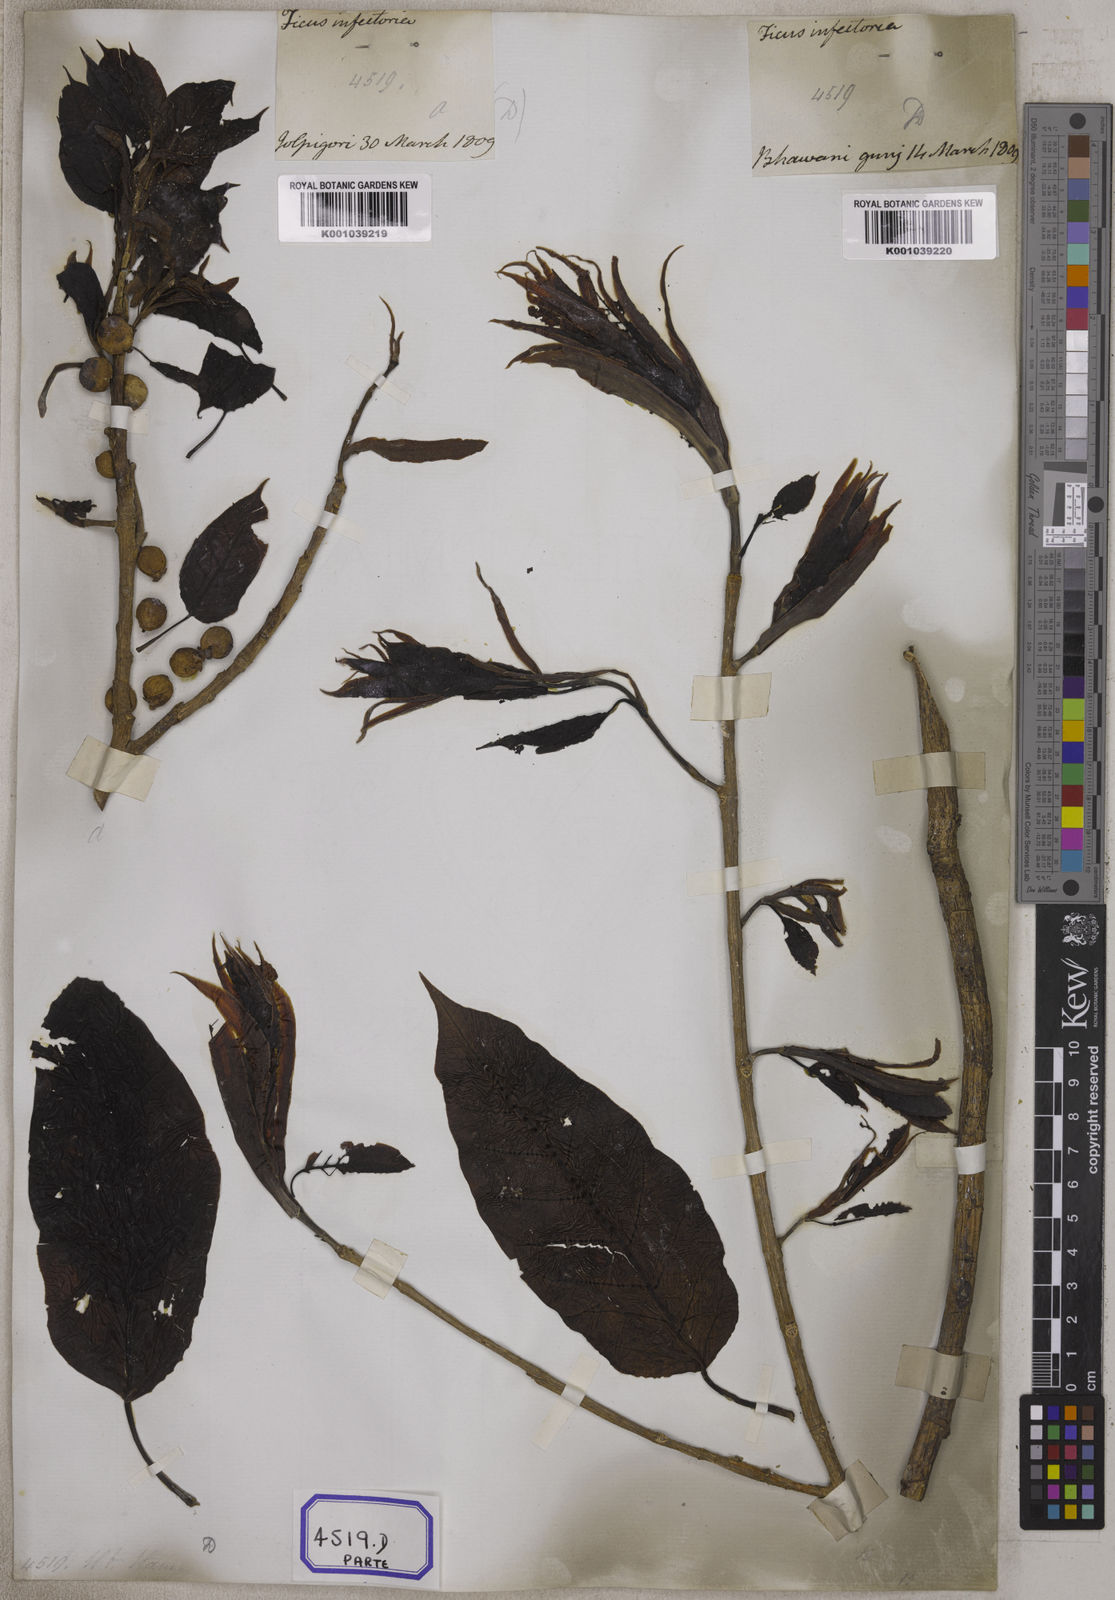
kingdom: Plantae
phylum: Tracheophyta
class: Magnoliopsida
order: Rosales
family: Moraceae
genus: Ficus
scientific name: Ficus
